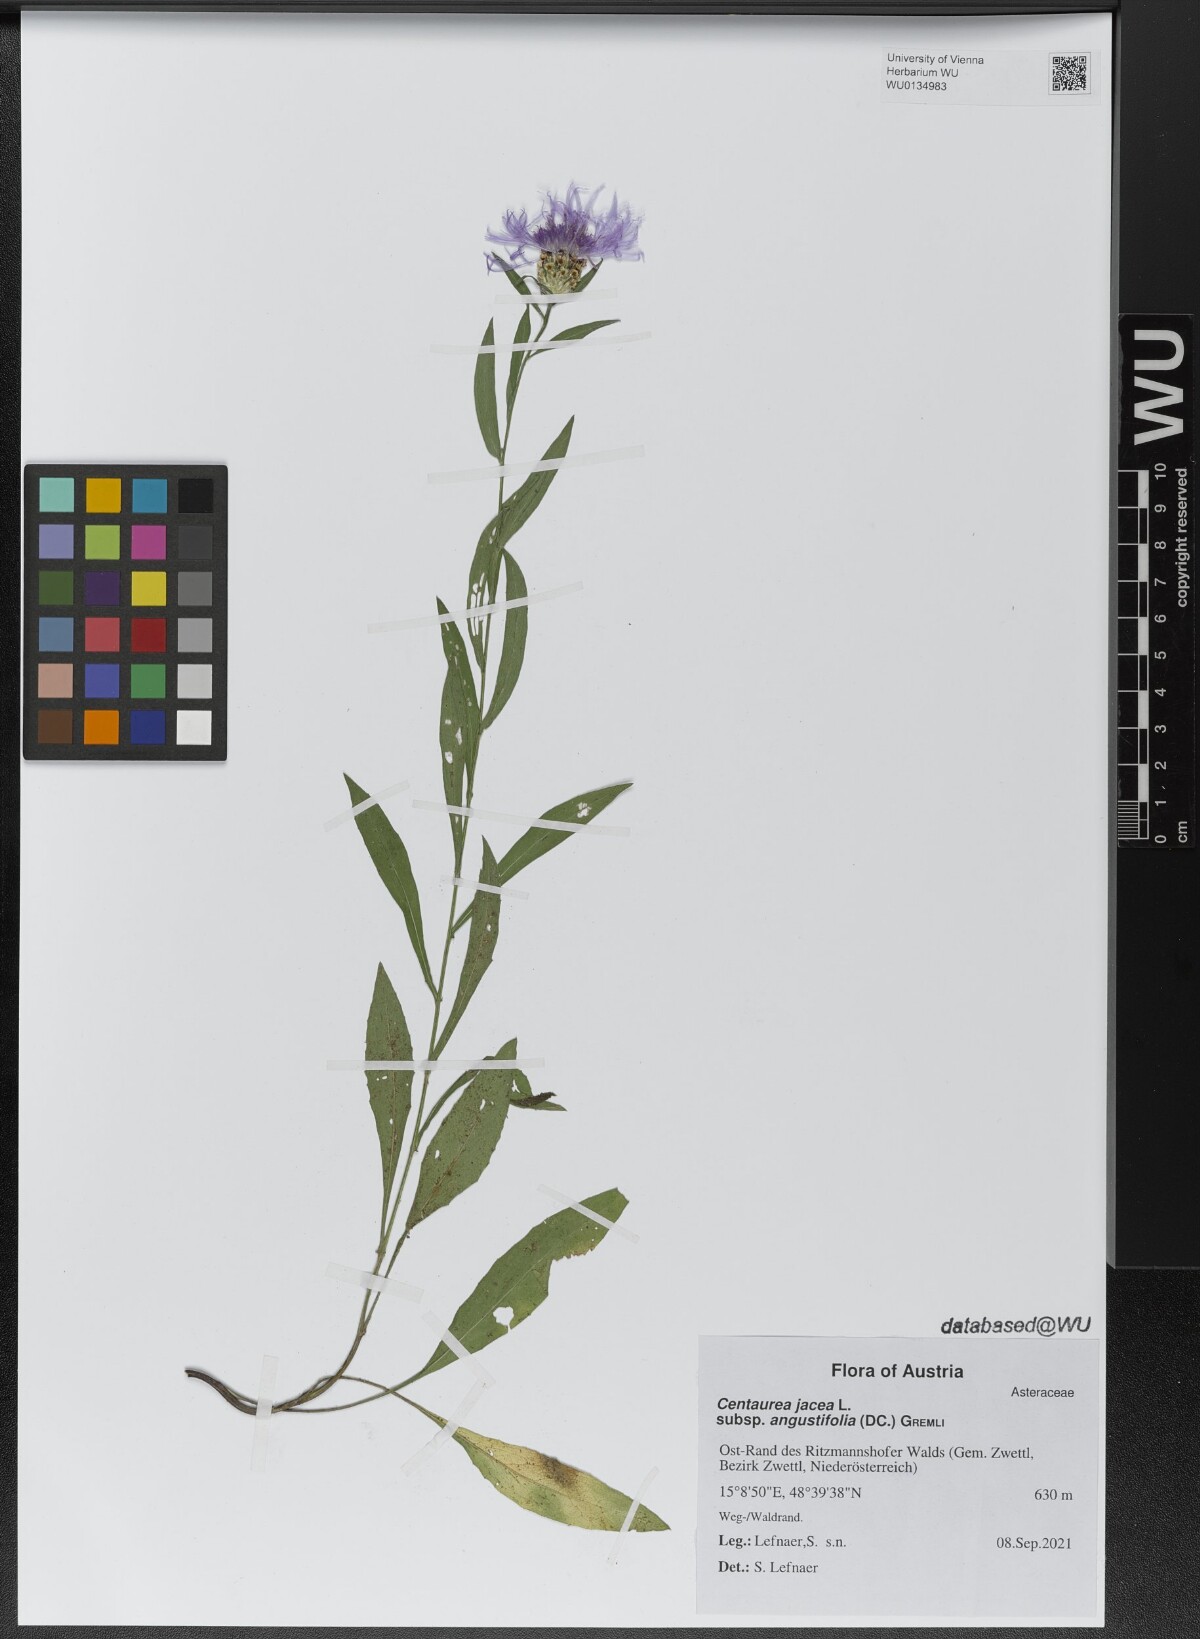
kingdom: Plantae
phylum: Tracheophyta
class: Magnoliopsida
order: Asterales
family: Asteraceae
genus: Centaurea
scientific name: Centaurea pannonica
